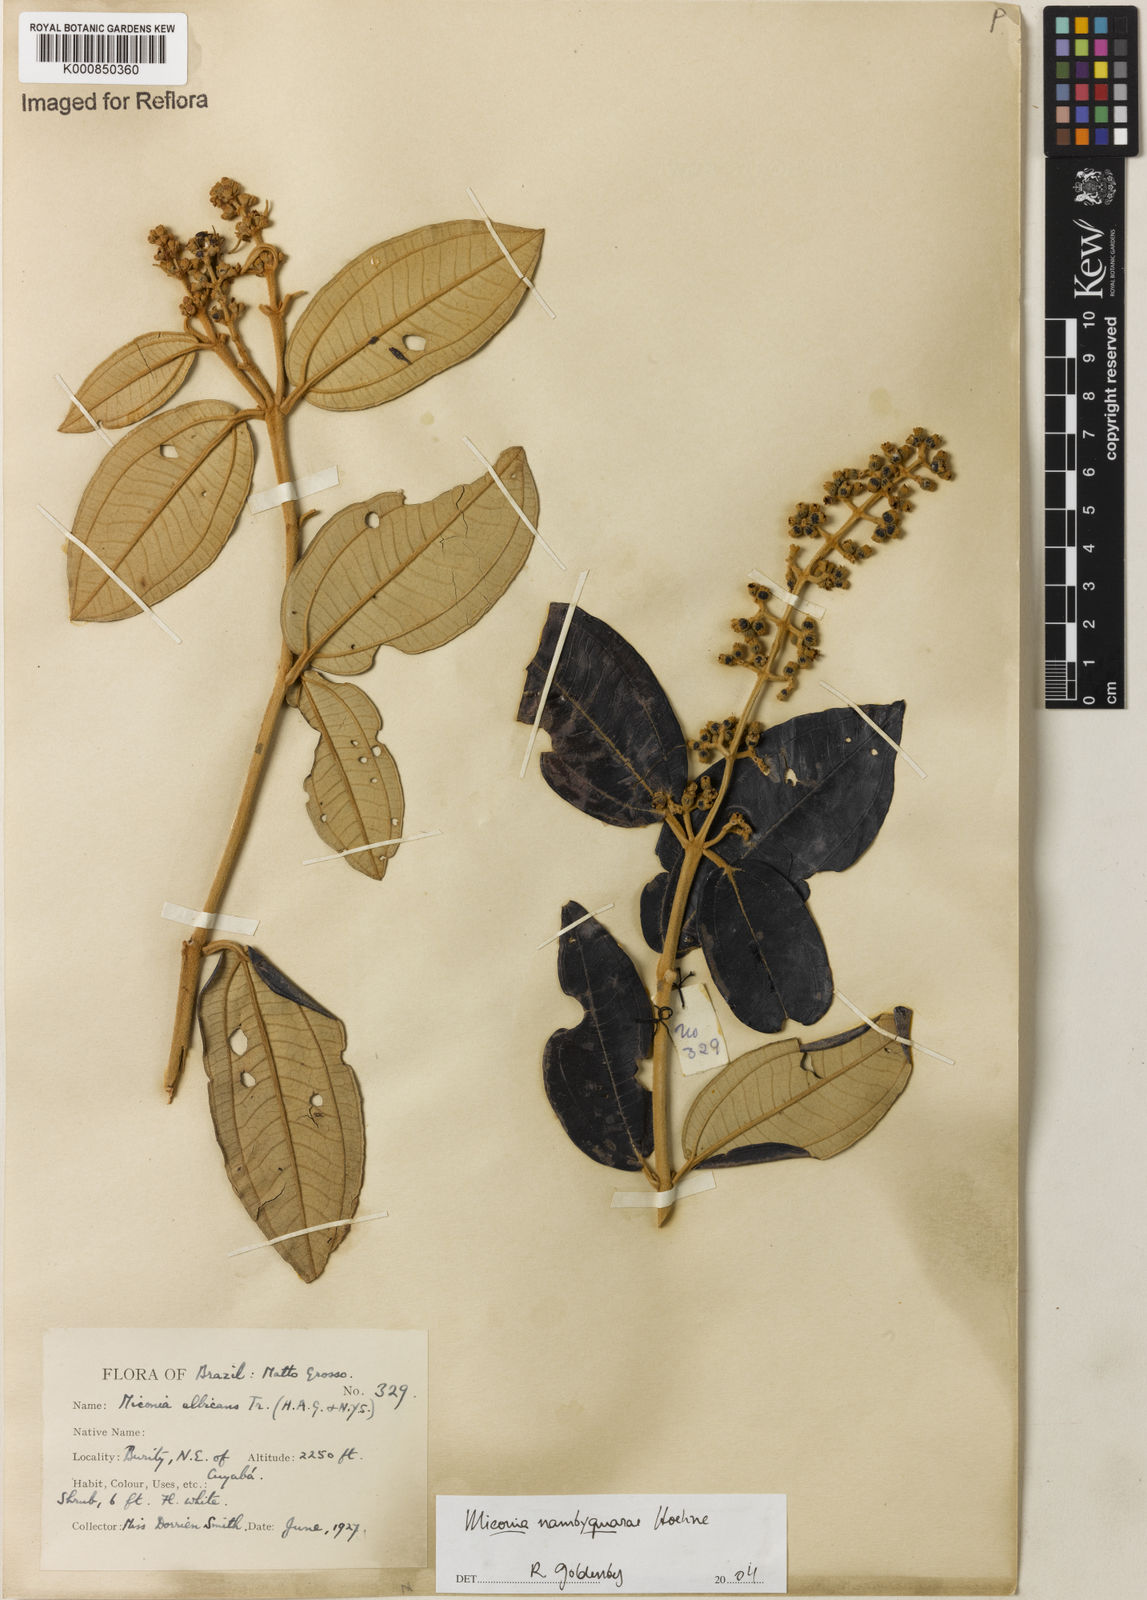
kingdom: Plantae
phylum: Tracheophyta
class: Magnoliopsida
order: Myrtales
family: Melastomataceae
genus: Miconia
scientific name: Miconia nambyquarae
